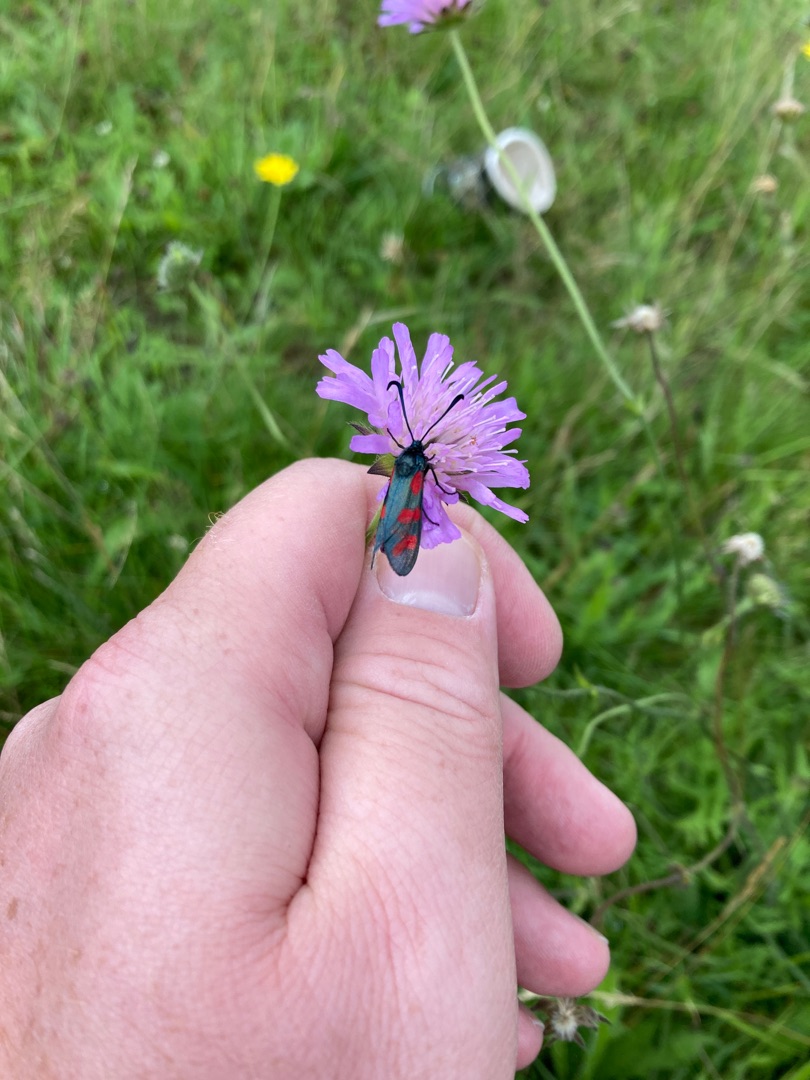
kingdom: Animalia
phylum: Arthropoda
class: Insecta
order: Lepidoptera
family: Zygaenidae
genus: Zygaena
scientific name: Zygaena filipendulae
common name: Seksplettet køllesværmer
